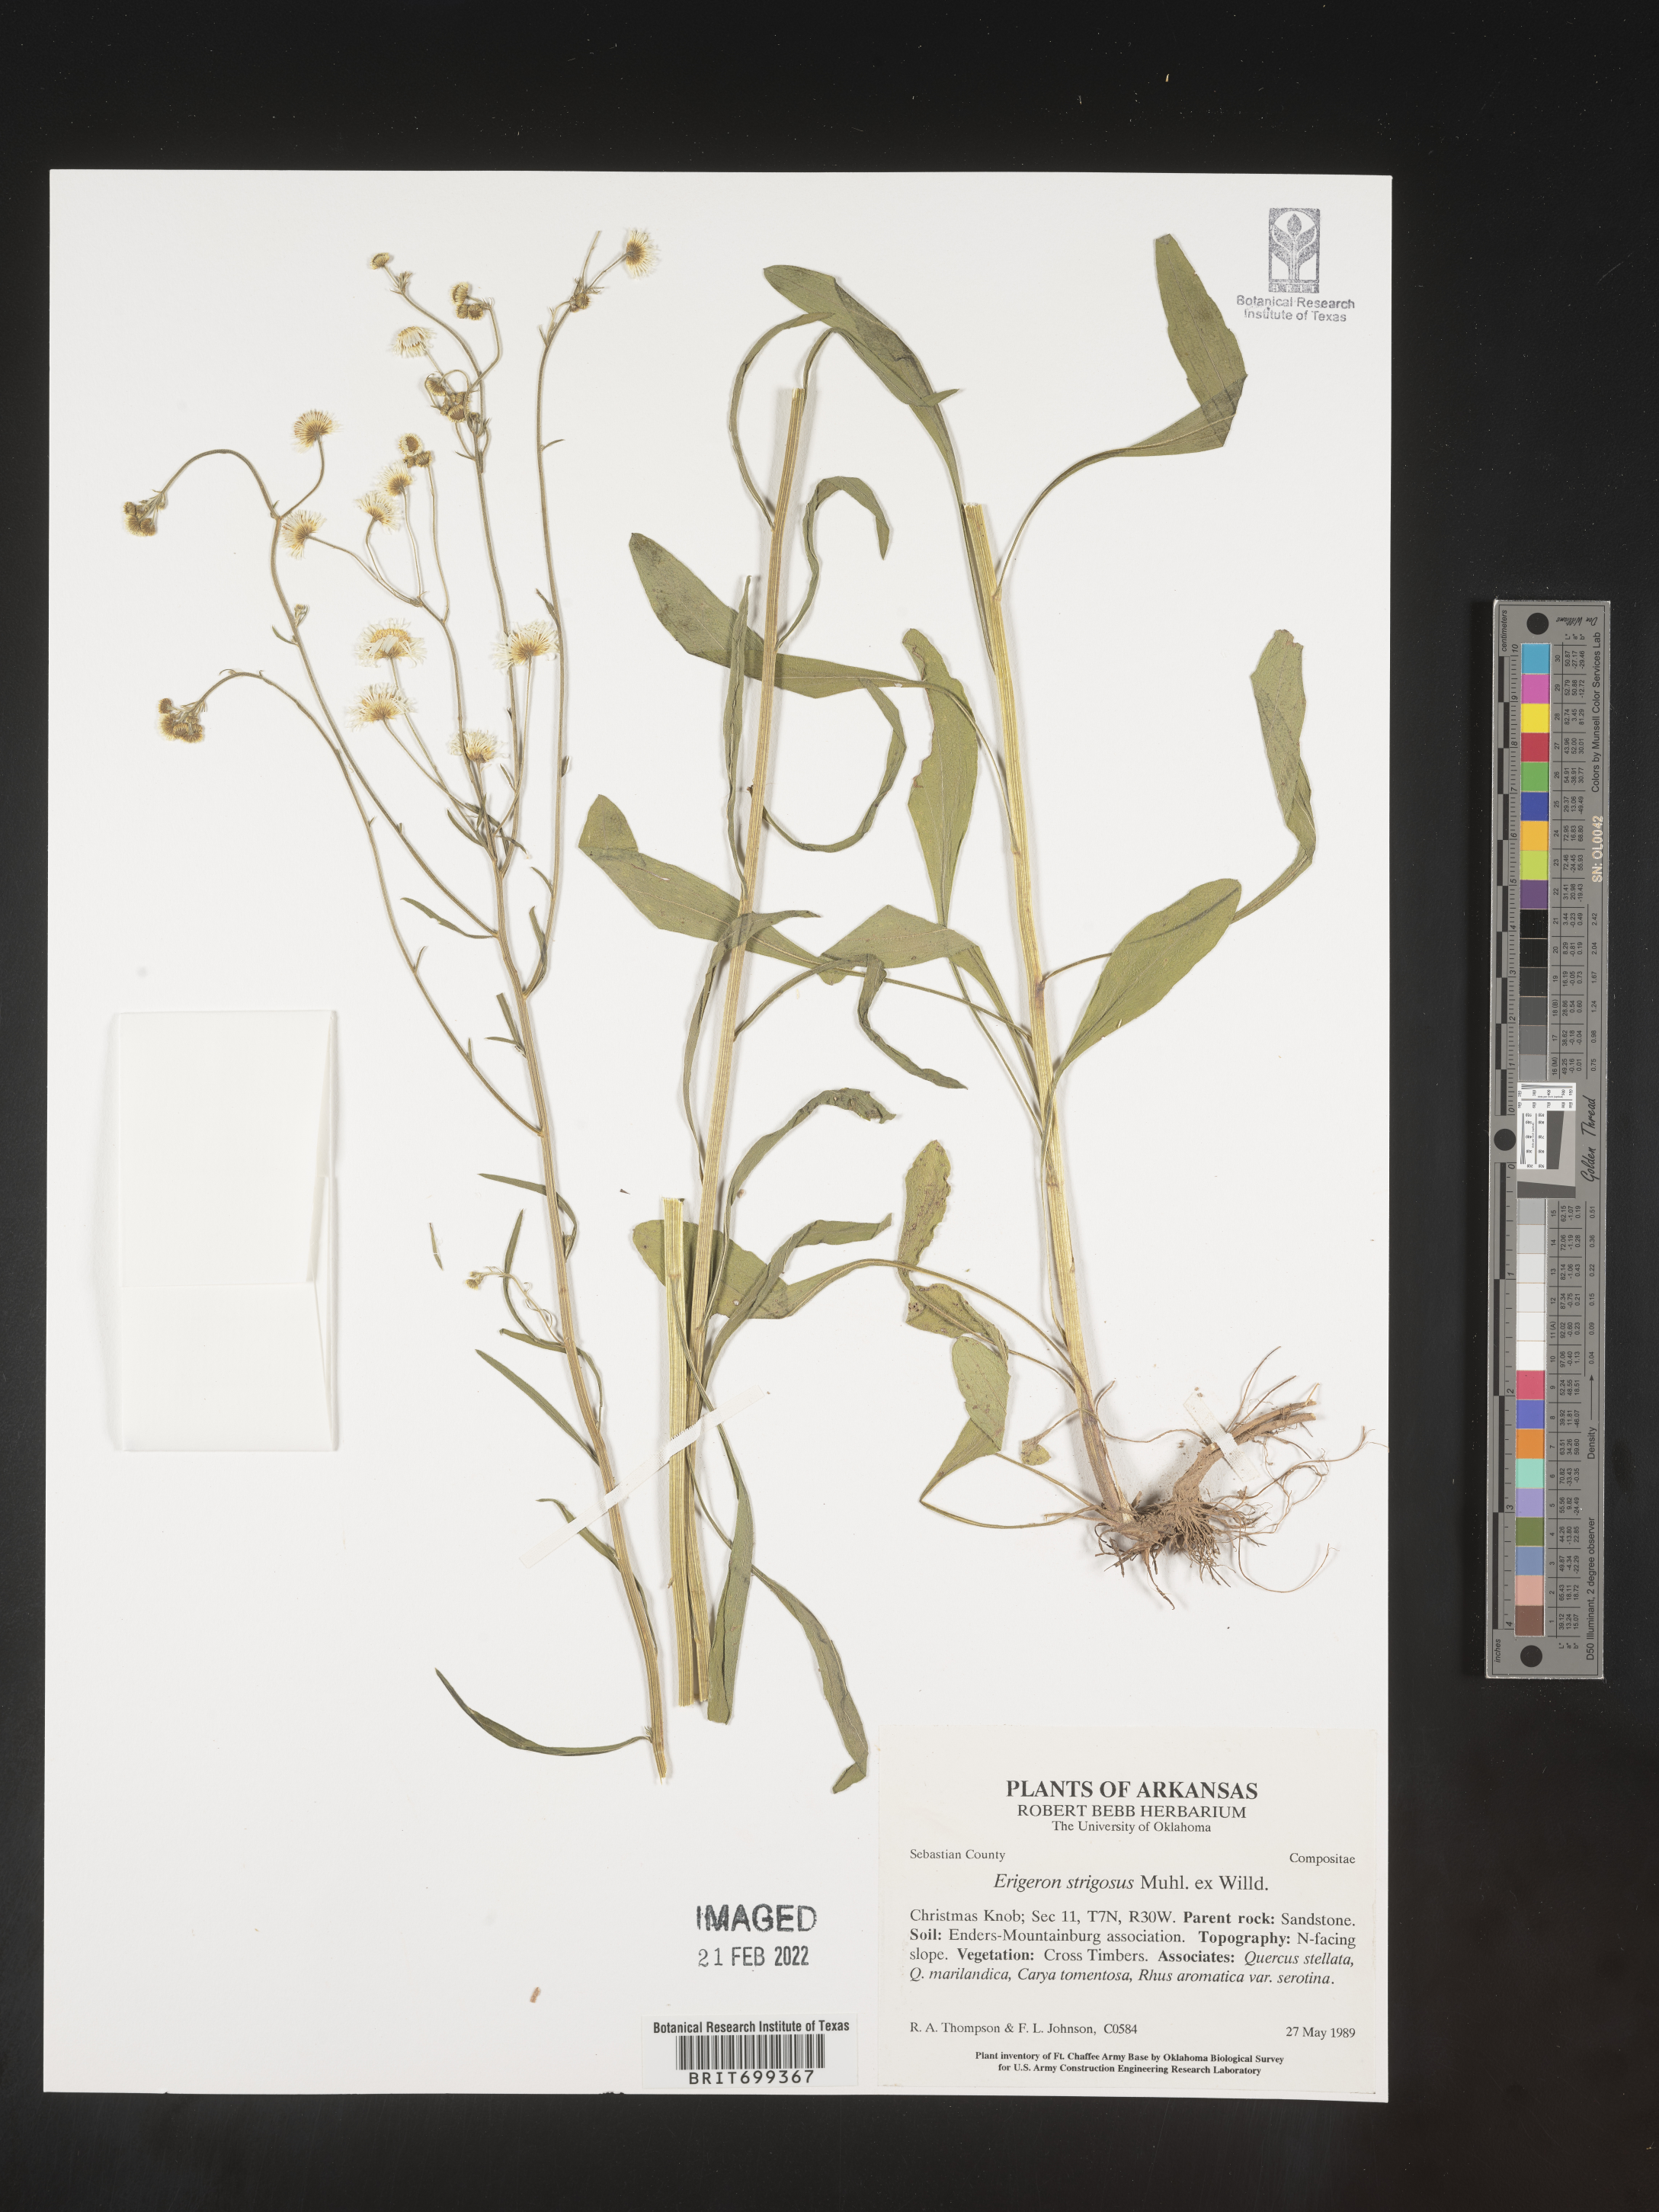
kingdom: Plantae
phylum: Tracheophyta
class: Magnoliopsida
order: Asterales
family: Asteraceae
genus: Erigeron
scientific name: Erigeron strigosus
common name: Common eastern fleabane
